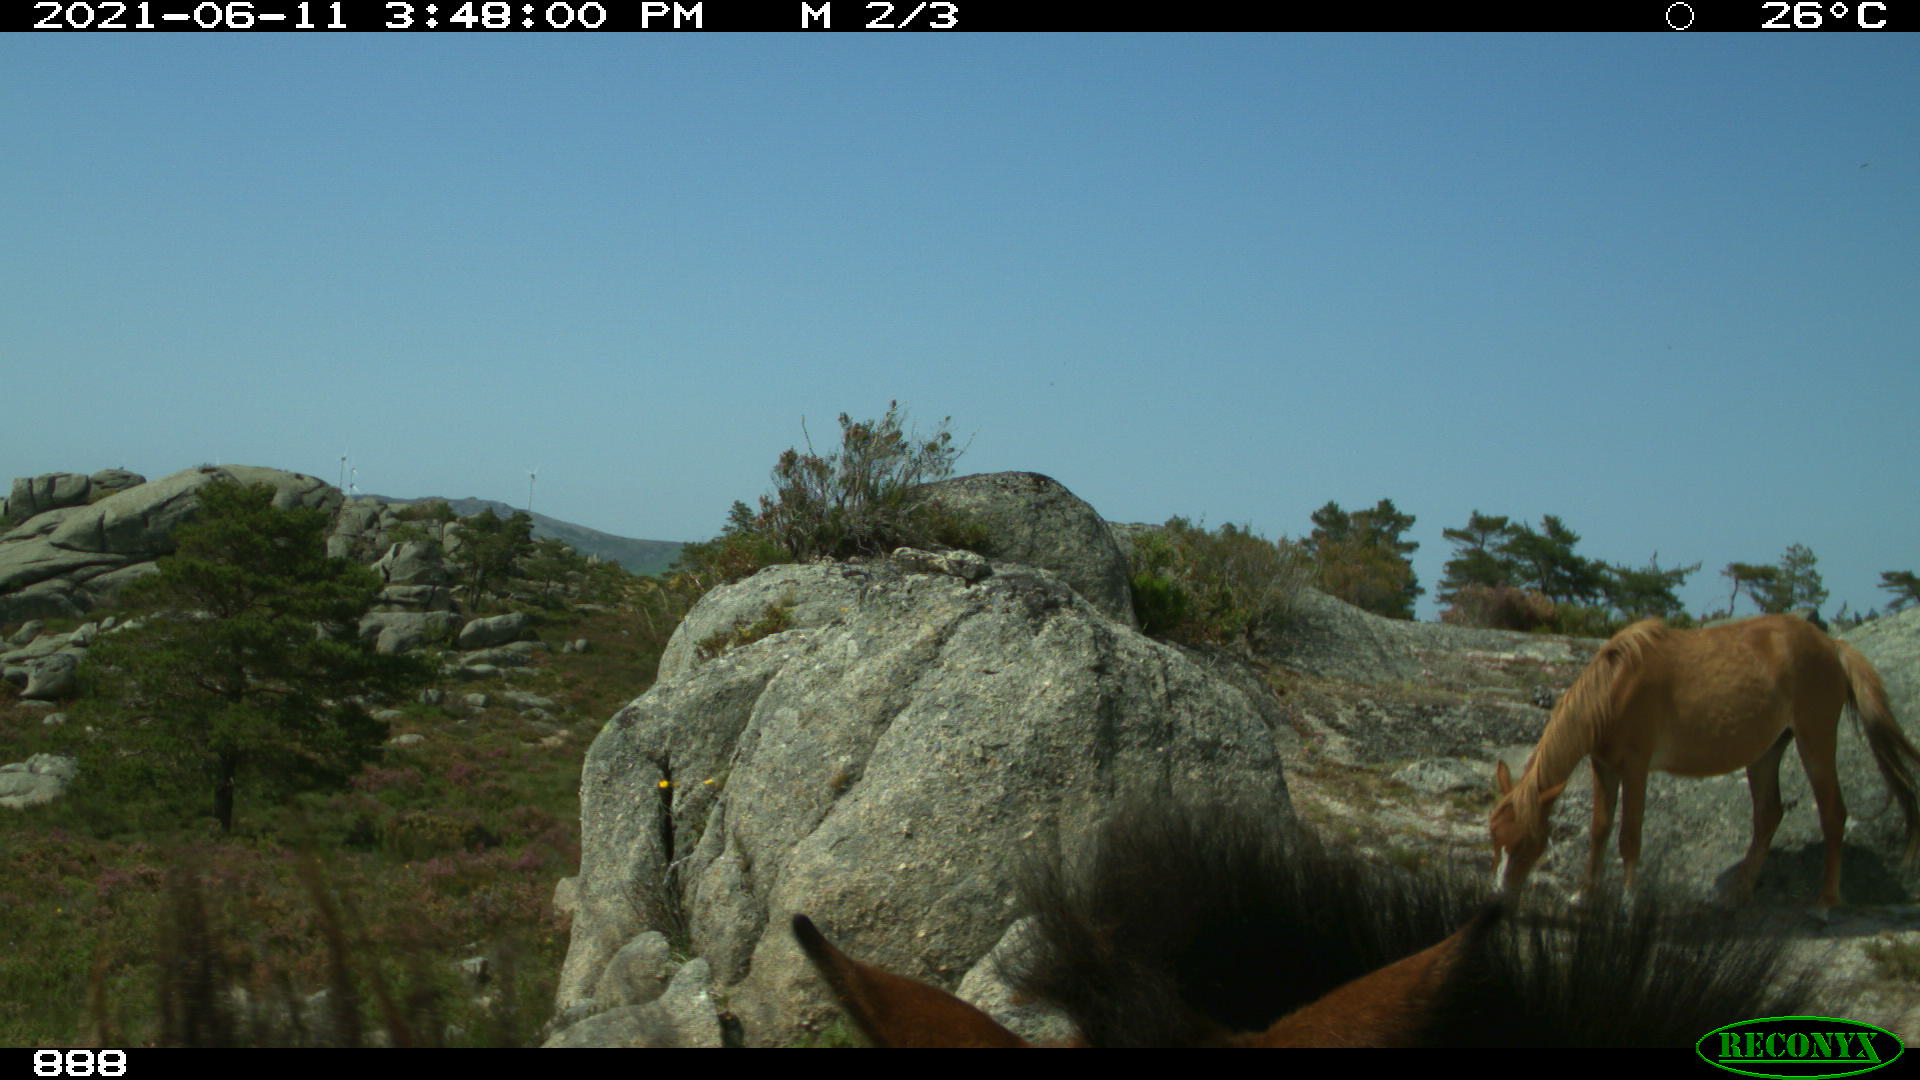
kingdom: Animalia
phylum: Chordata
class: Mammalia
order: Perissodactyla
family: Equidae
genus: Equus
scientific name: Equus caballus
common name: Horse
